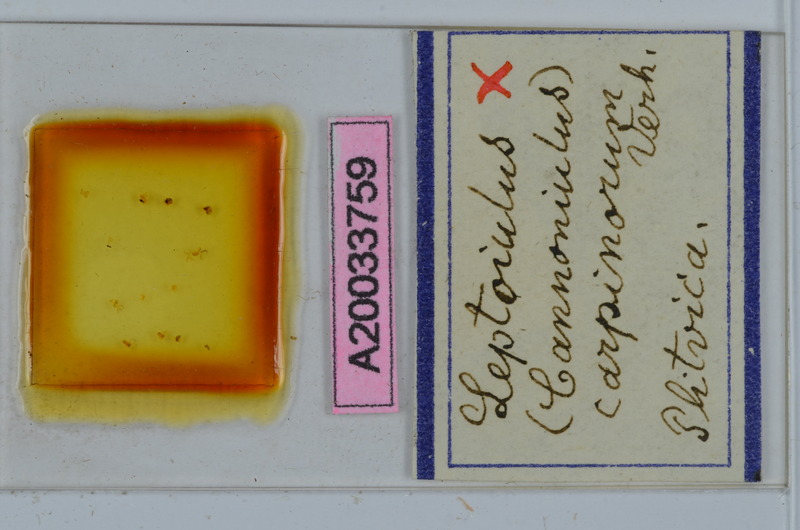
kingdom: Animalia
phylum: Arthropoda
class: Diplopoda
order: Julida
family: Julidae
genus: Leptoiulus
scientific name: Leptoiulus carpinorum
